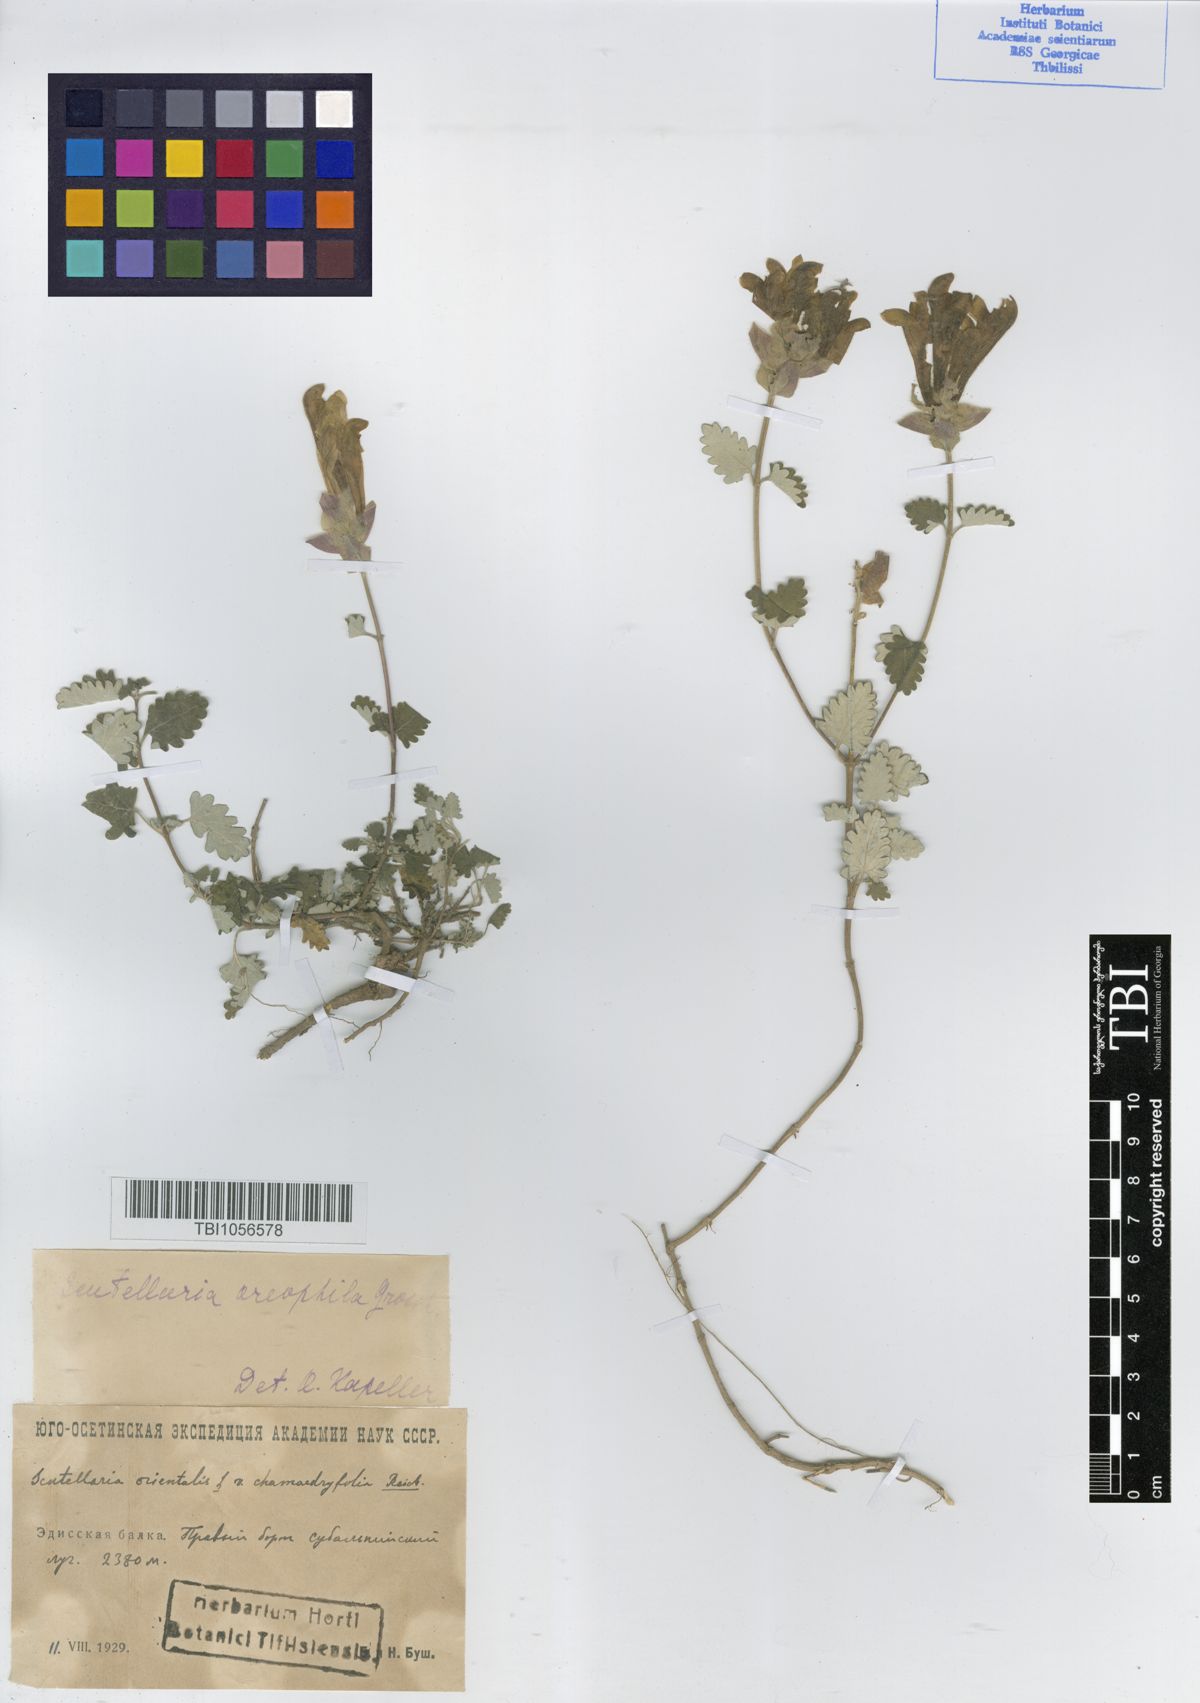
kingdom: Plantae
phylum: Tracheophyta
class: Magnoliopsida
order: Lamiales
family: Lamiaceae
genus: Scutellaria
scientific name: Scutellaria oreophila
